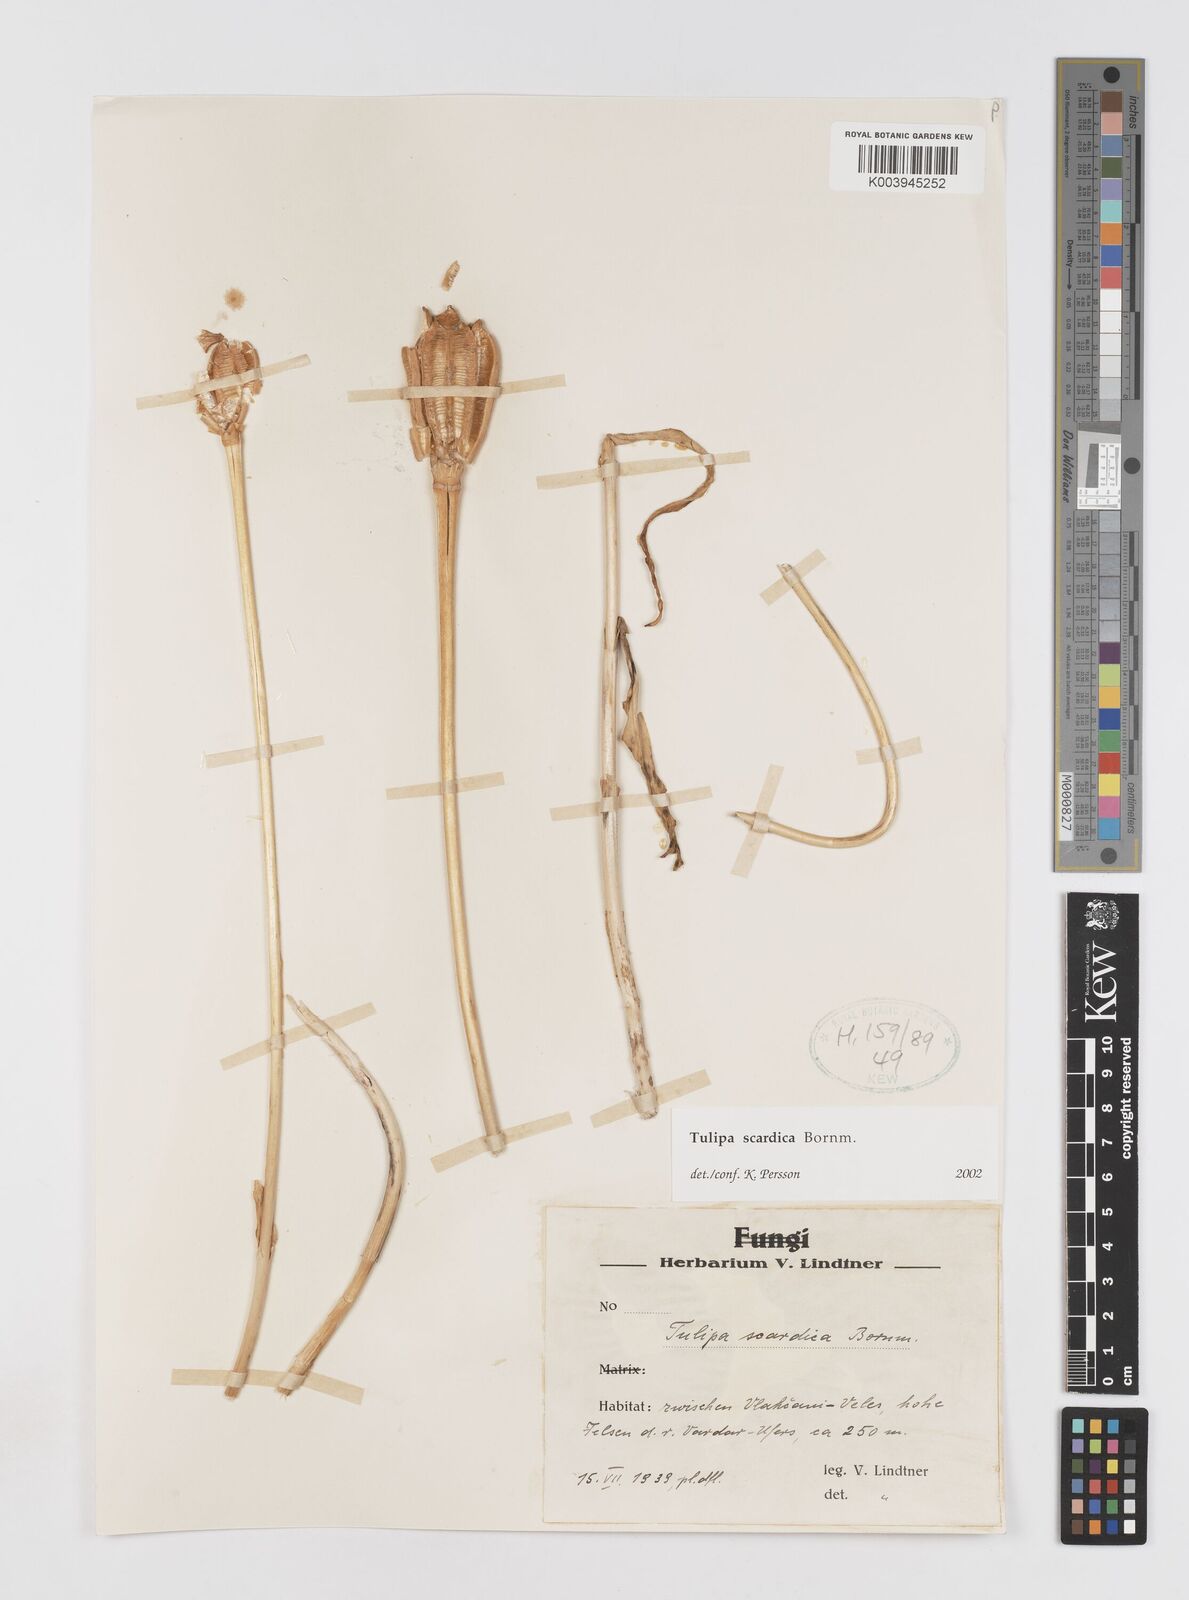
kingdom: Plantae
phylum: Tracheophyta
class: Liliopsida
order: Liliales
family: Liliaceae
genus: Tulipa
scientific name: Tulipa scardica
